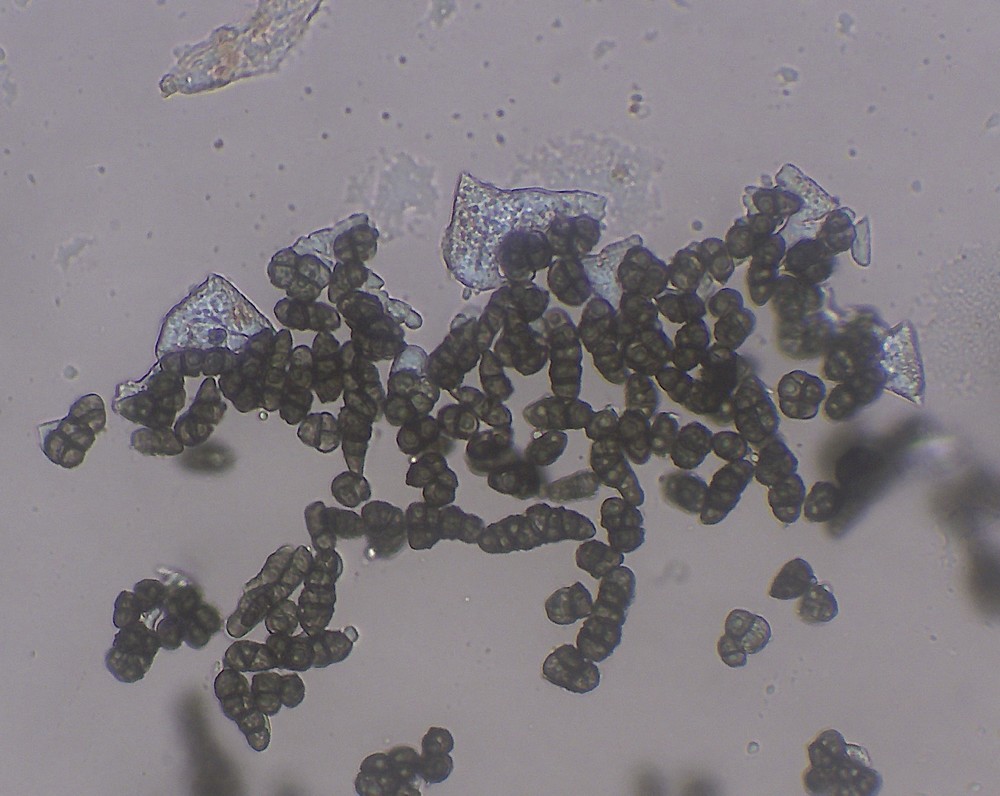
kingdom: Fungi
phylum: Ascomycota
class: Leotiomycetes
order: Helotiales
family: Mollisiaceae
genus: Trimmatostroma
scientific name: Trimmatostroma betulinum
